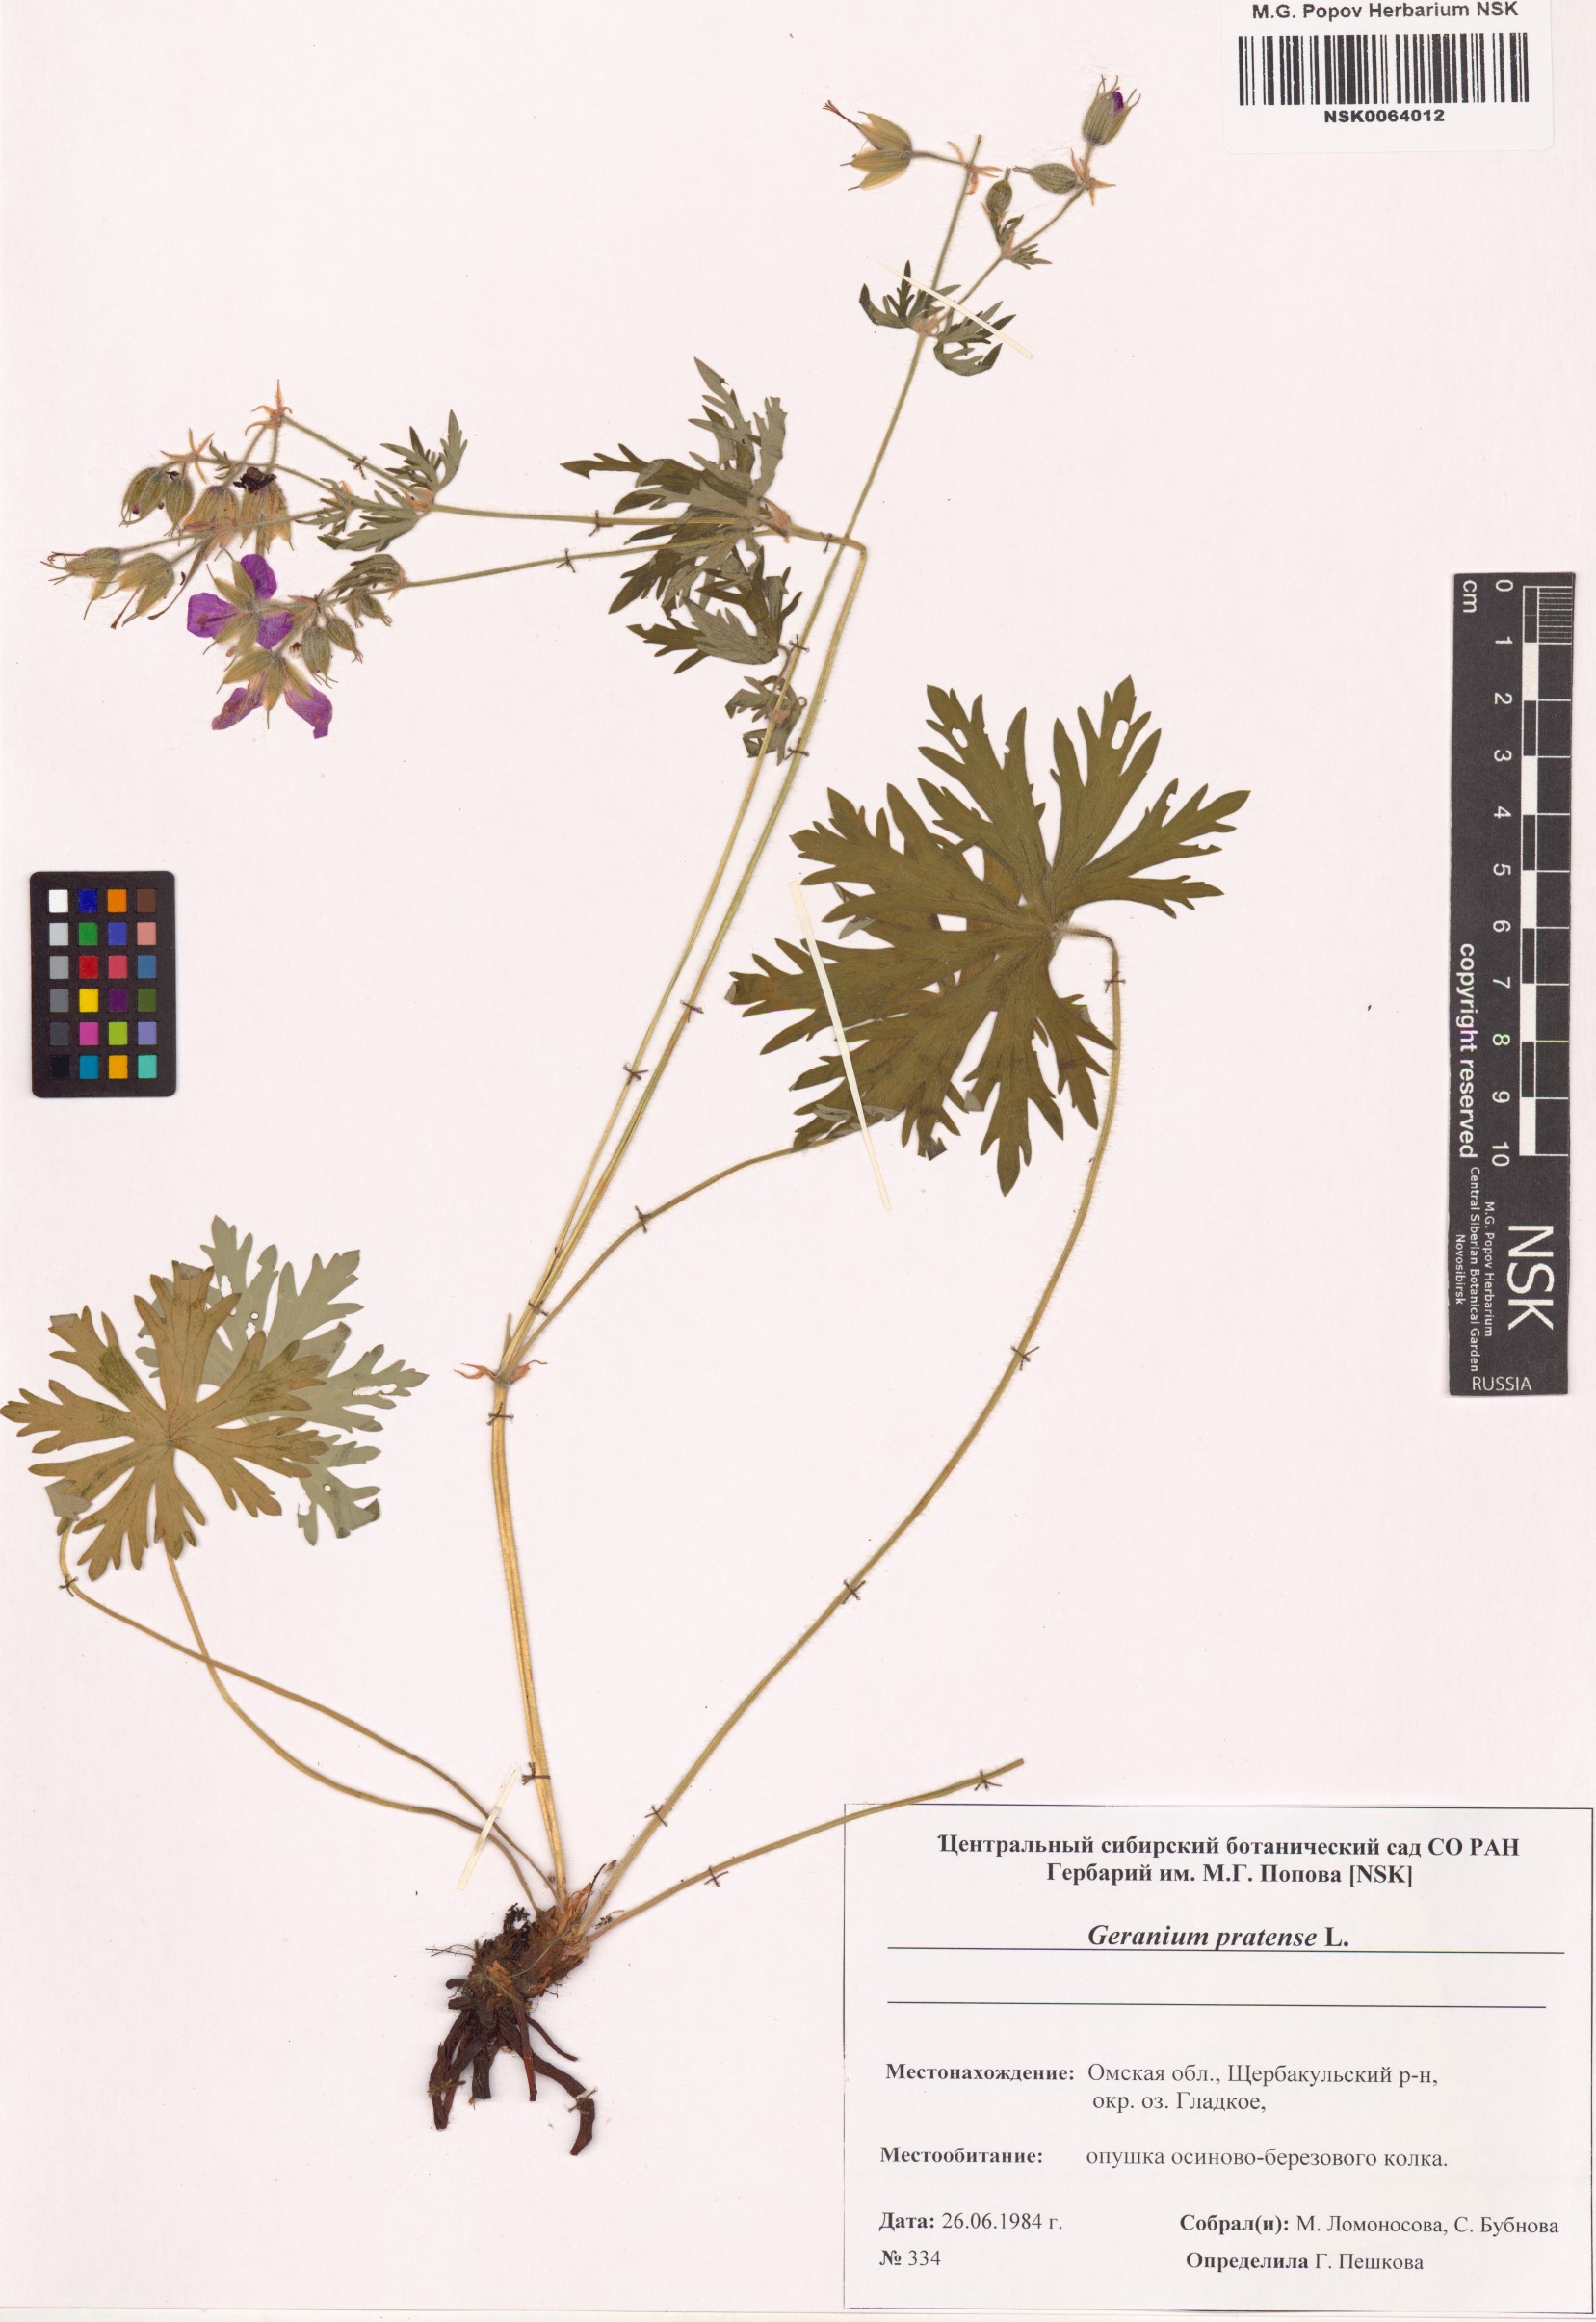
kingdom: Plantae
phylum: Tracheophyta
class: Magnoliopsida
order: Geraniales
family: Geraniaceae
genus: Geranium
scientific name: Geranium pratense
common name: Meadow crane's-bill
